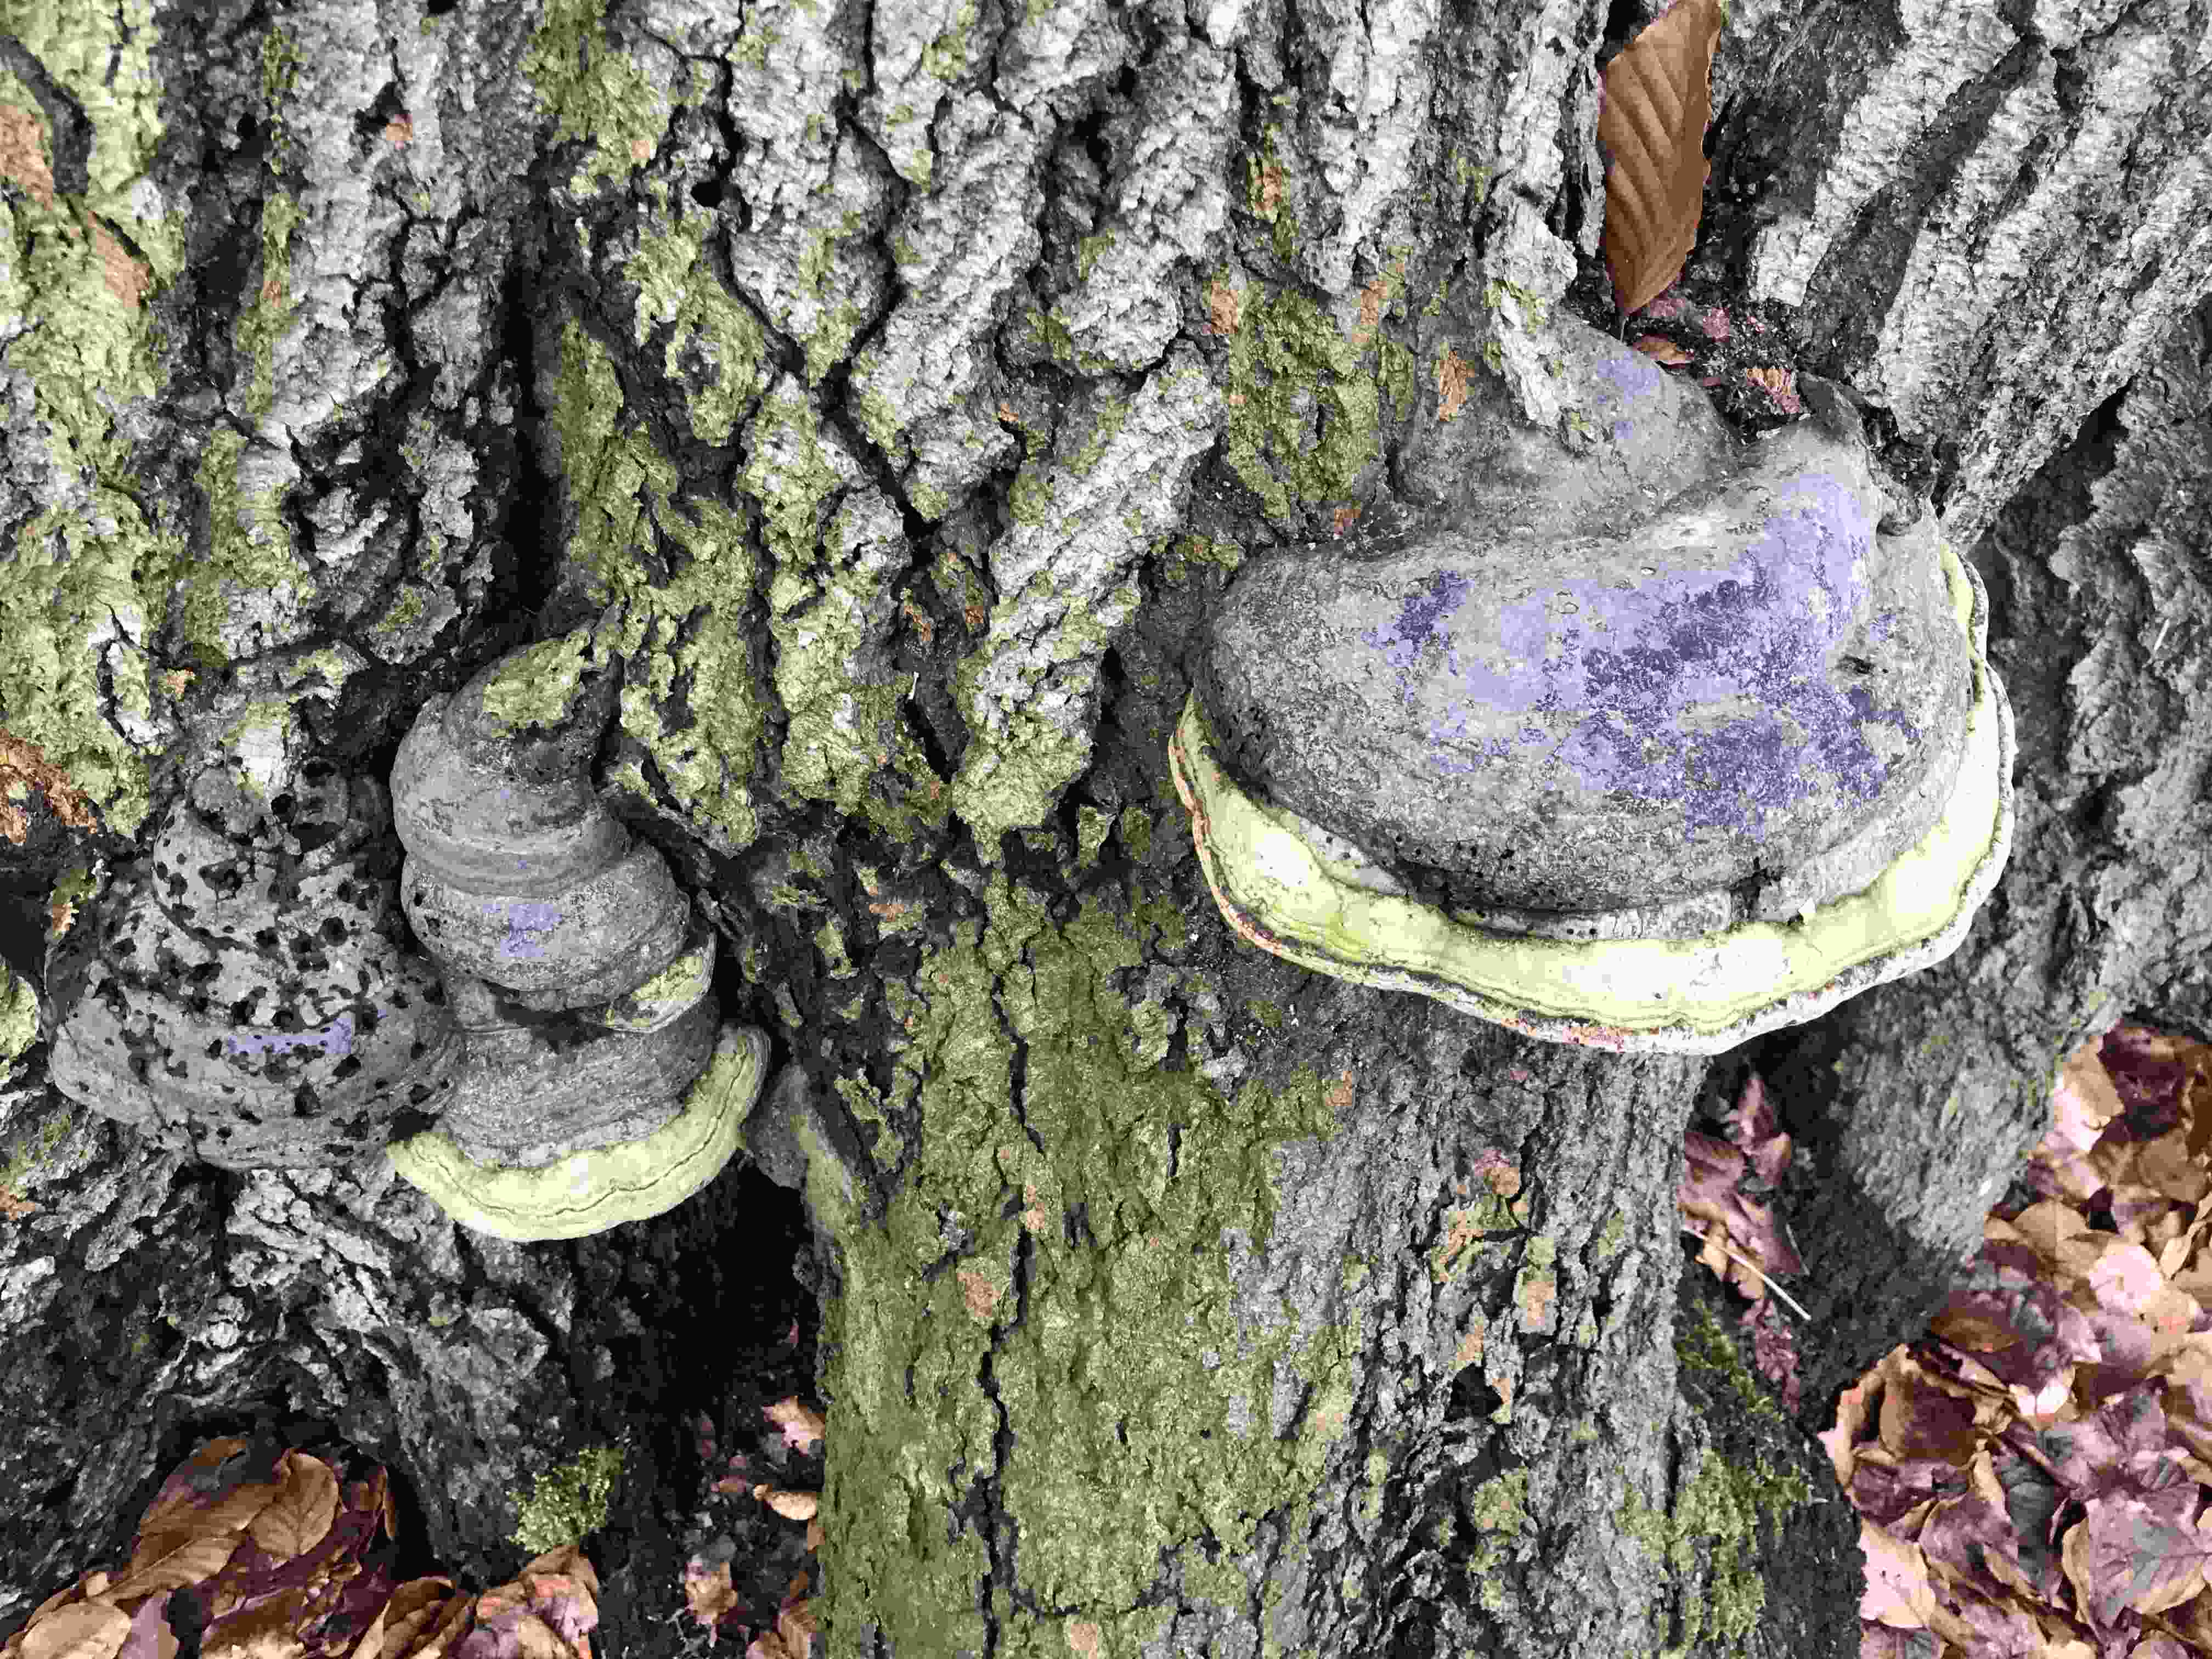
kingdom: Fungi
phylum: Basidiomycota
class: Agaricomycetes
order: Polyporales
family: Polyporaceae
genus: Fomes
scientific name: Fomes fomentarius
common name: tøndersvamp
